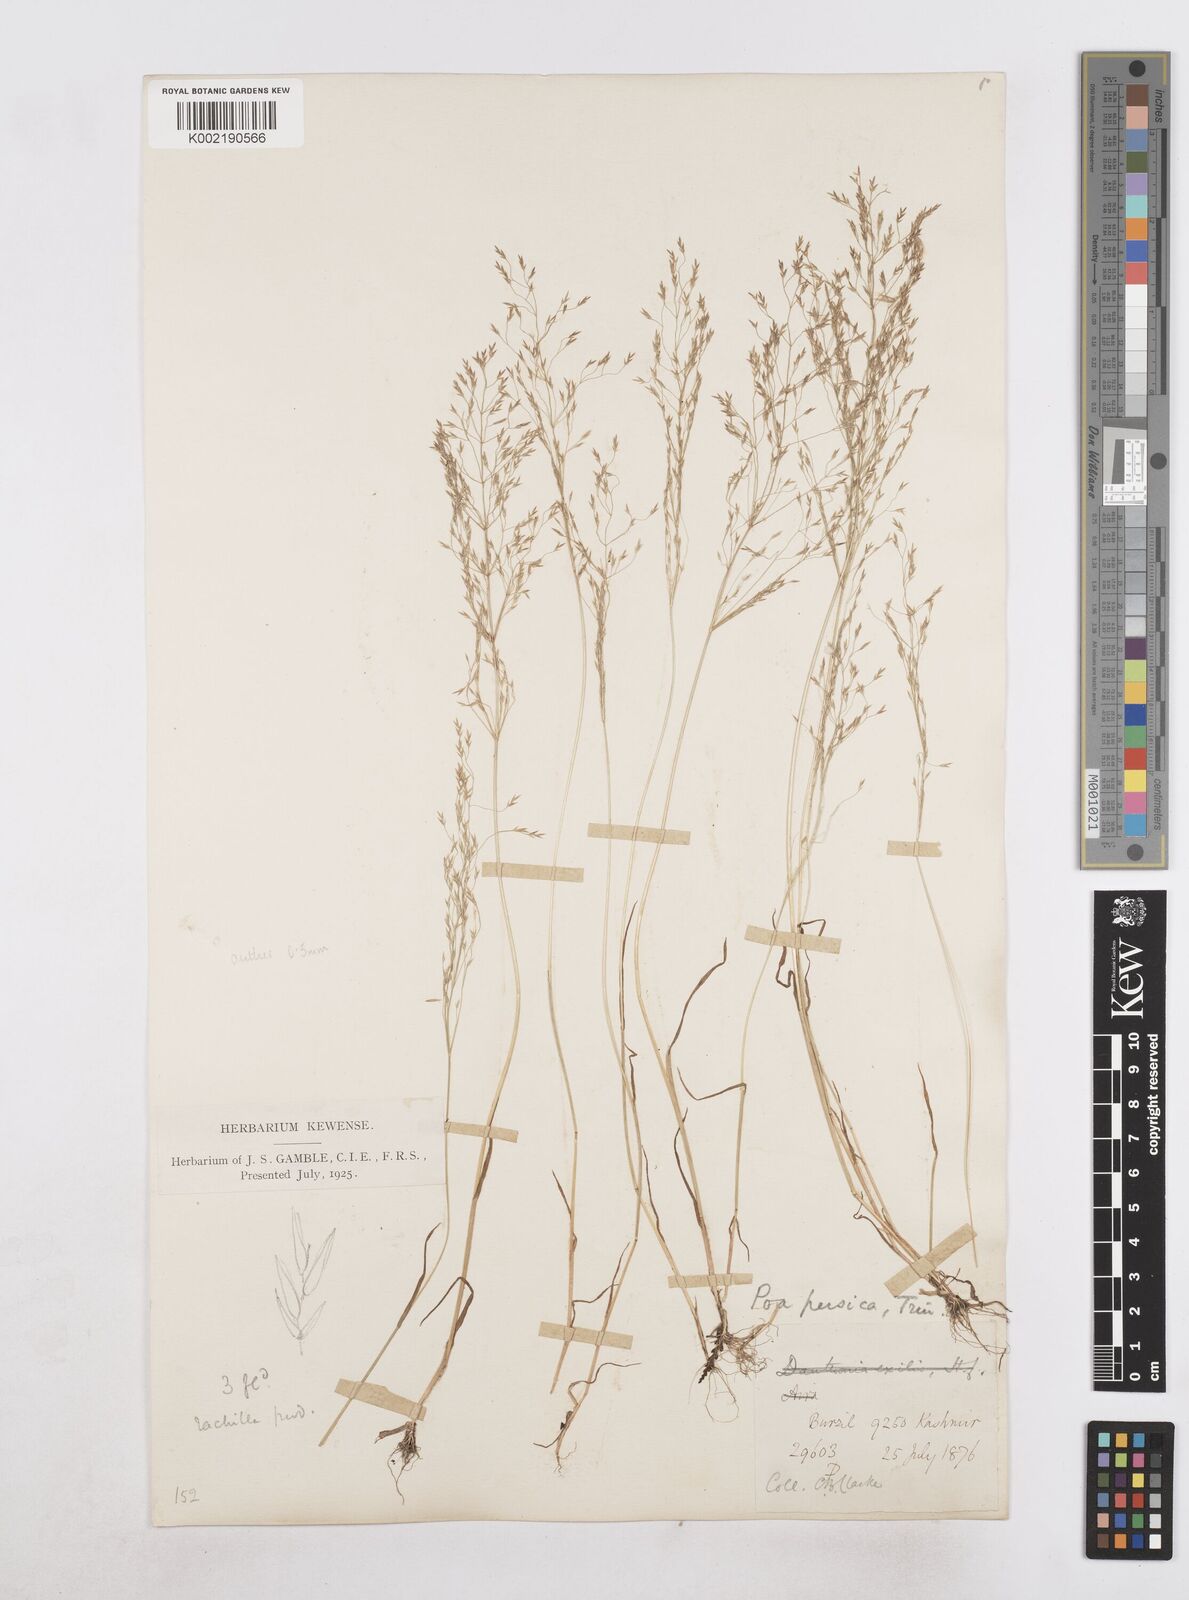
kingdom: Plantae
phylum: Tracheophyta
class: Liliopsida
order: Poales
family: Poaceae
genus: Poa
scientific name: Poa diaphora
